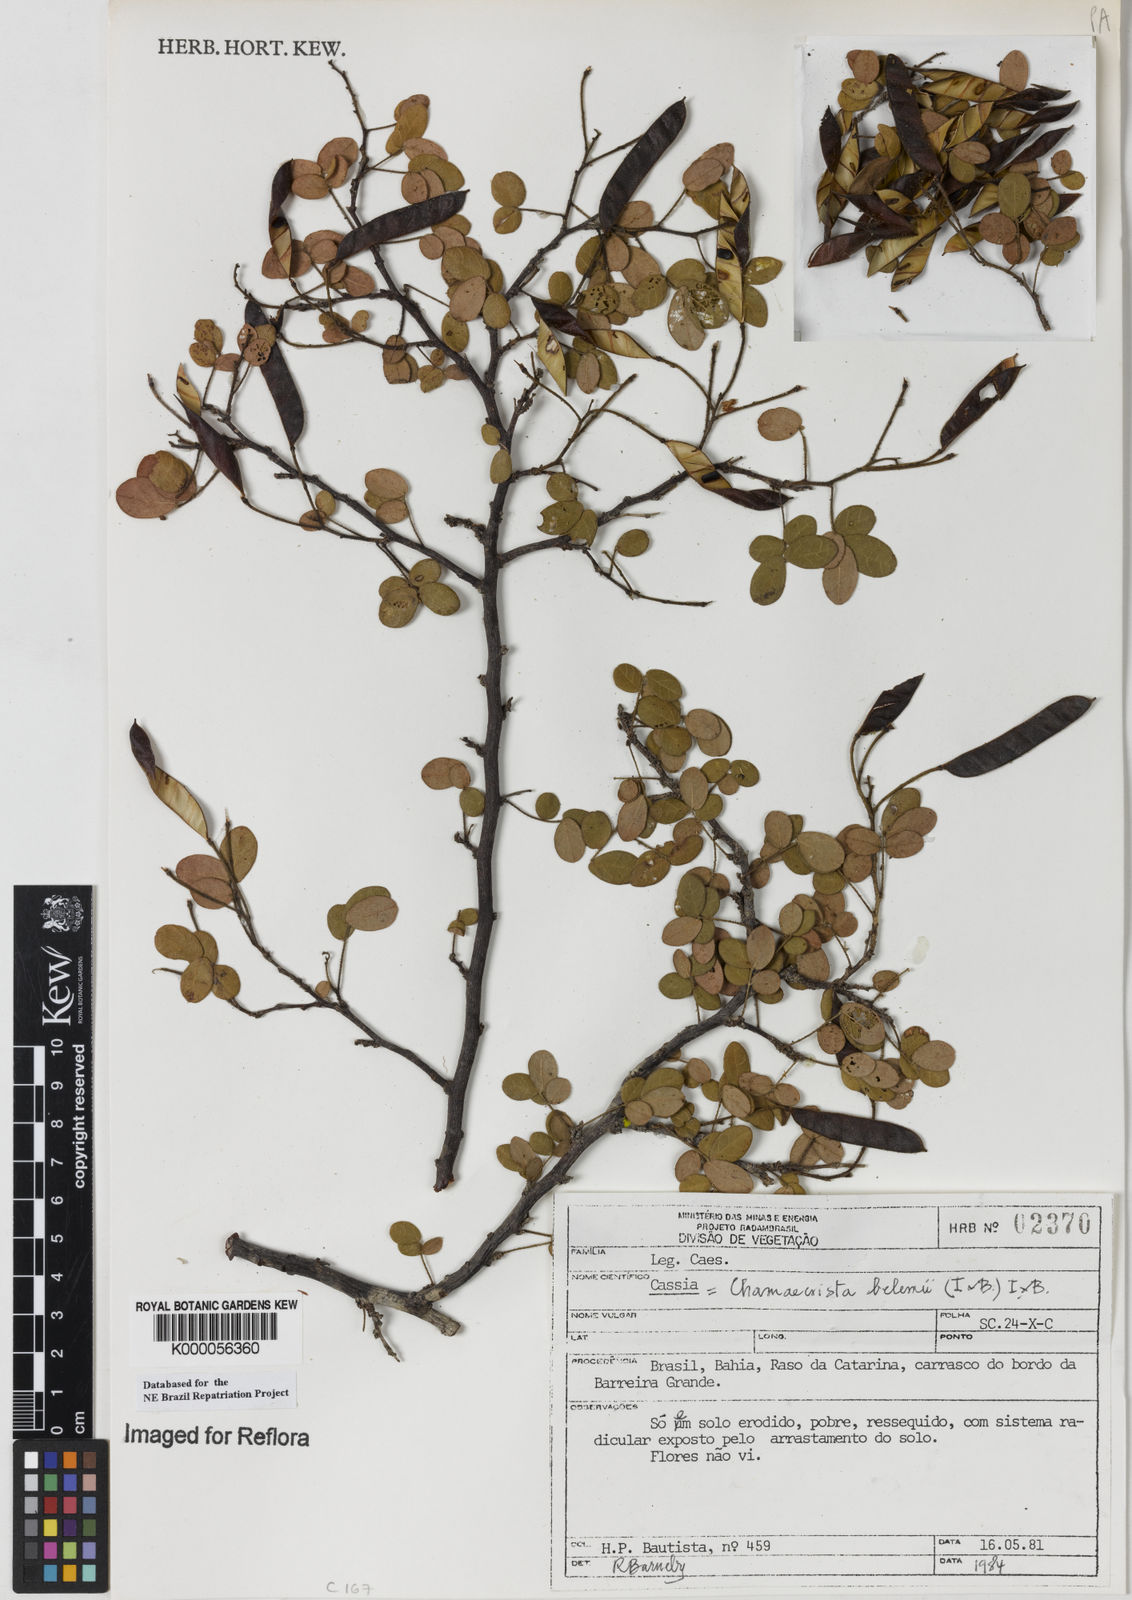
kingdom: Plantae
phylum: Tracheophyta
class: Magnoliopsida
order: Fabales
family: Fabaceae
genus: Chamaecrista
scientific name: Chamaecrista belemii
